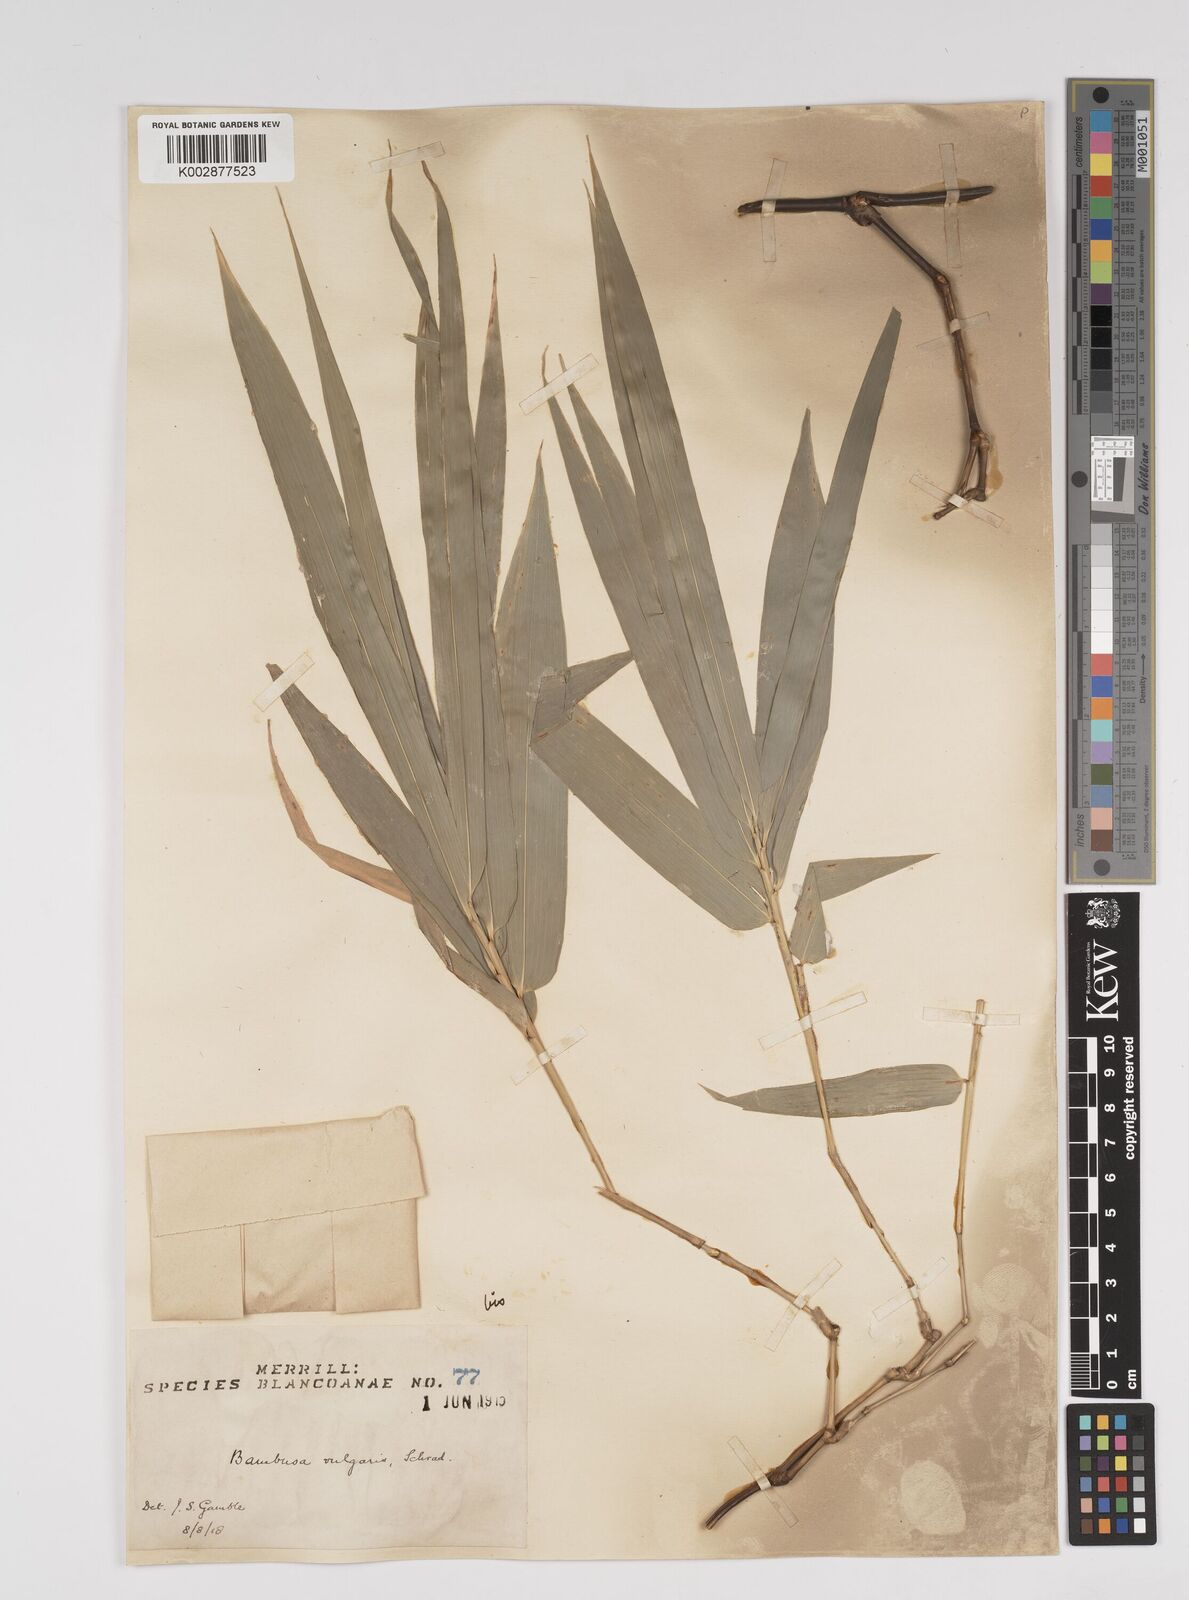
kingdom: Plantae
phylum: Tracheophyta
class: Liliopsida
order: Poales
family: Poaceae
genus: Bambusa
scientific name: Bambusa vulgaris
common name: Common bamboo
